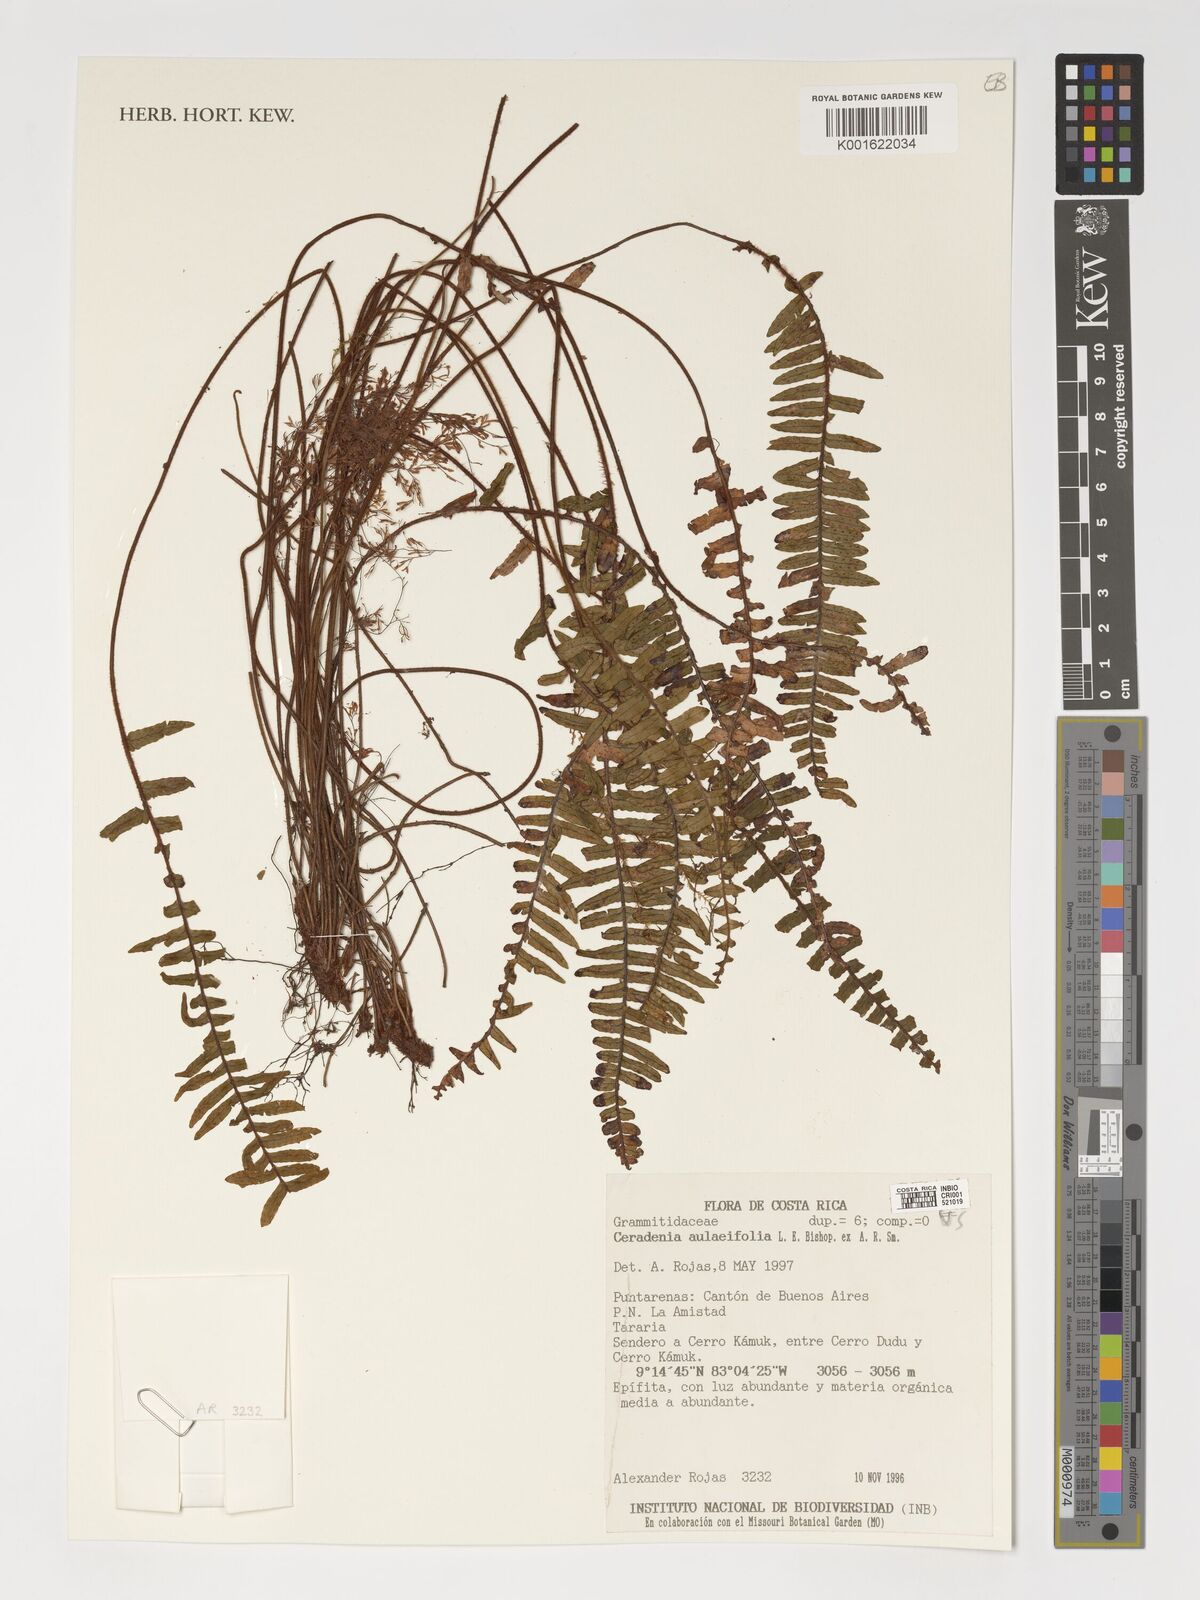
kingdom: Plantae
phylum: Tracheophyta
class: Polypodiopsida
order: Polypodiales
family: Polypodiaceae
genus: Ceradenia
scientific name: Ceradenia aulaeifolia
